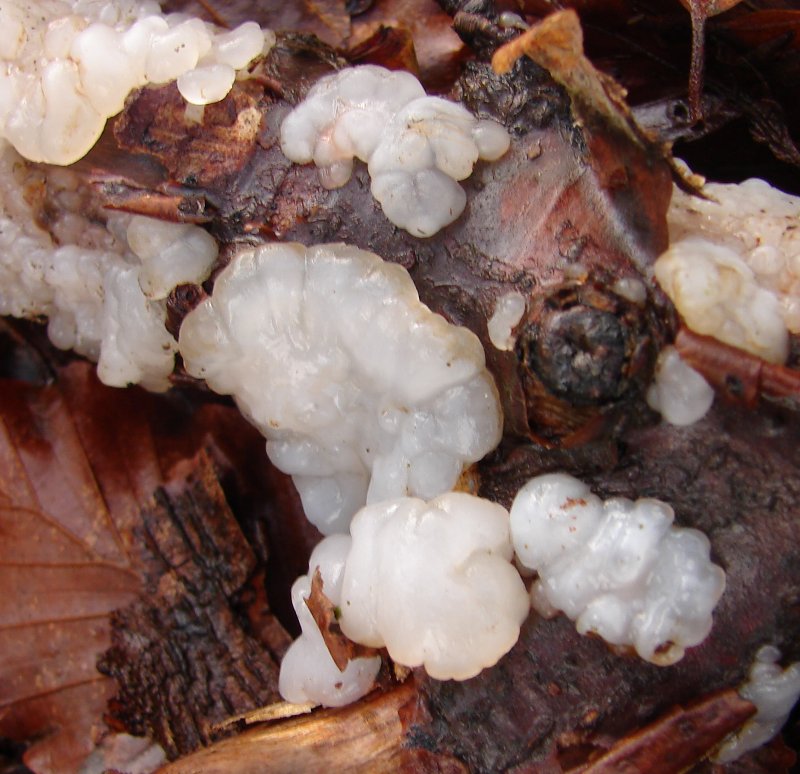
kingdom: Fungi
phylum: Basidiomycota
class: Agaricomycetes
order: Auriculariales
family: Auriculariaceae
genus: Exidia
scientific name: Exidia thuretiana
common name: hvidlig bævretop
